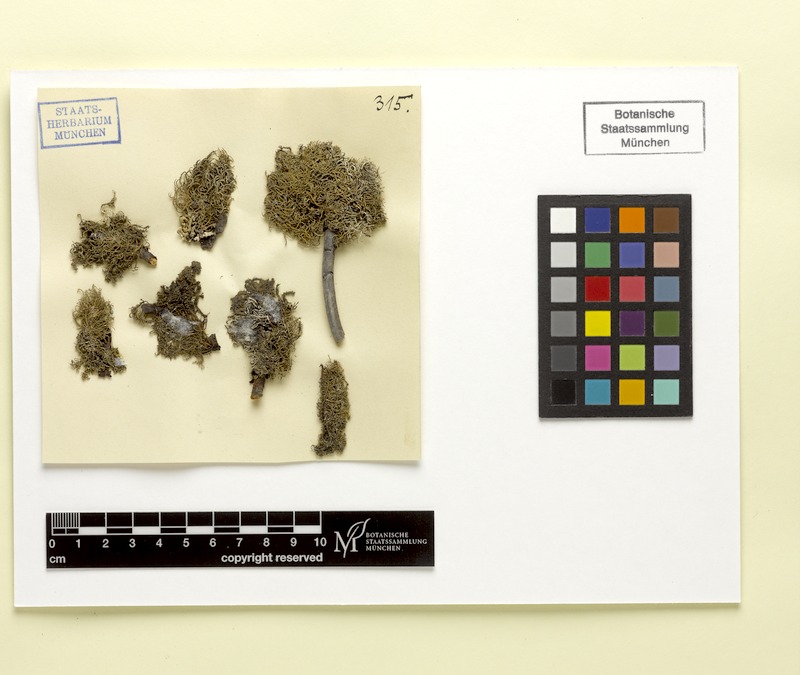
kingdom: Fungi
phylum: Ascomycota
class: Lecanoromycetes
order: Lecanorales
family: Parmeliaceae
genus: Usnea
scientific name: Usnea hirta
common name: Bristly beard lichen
